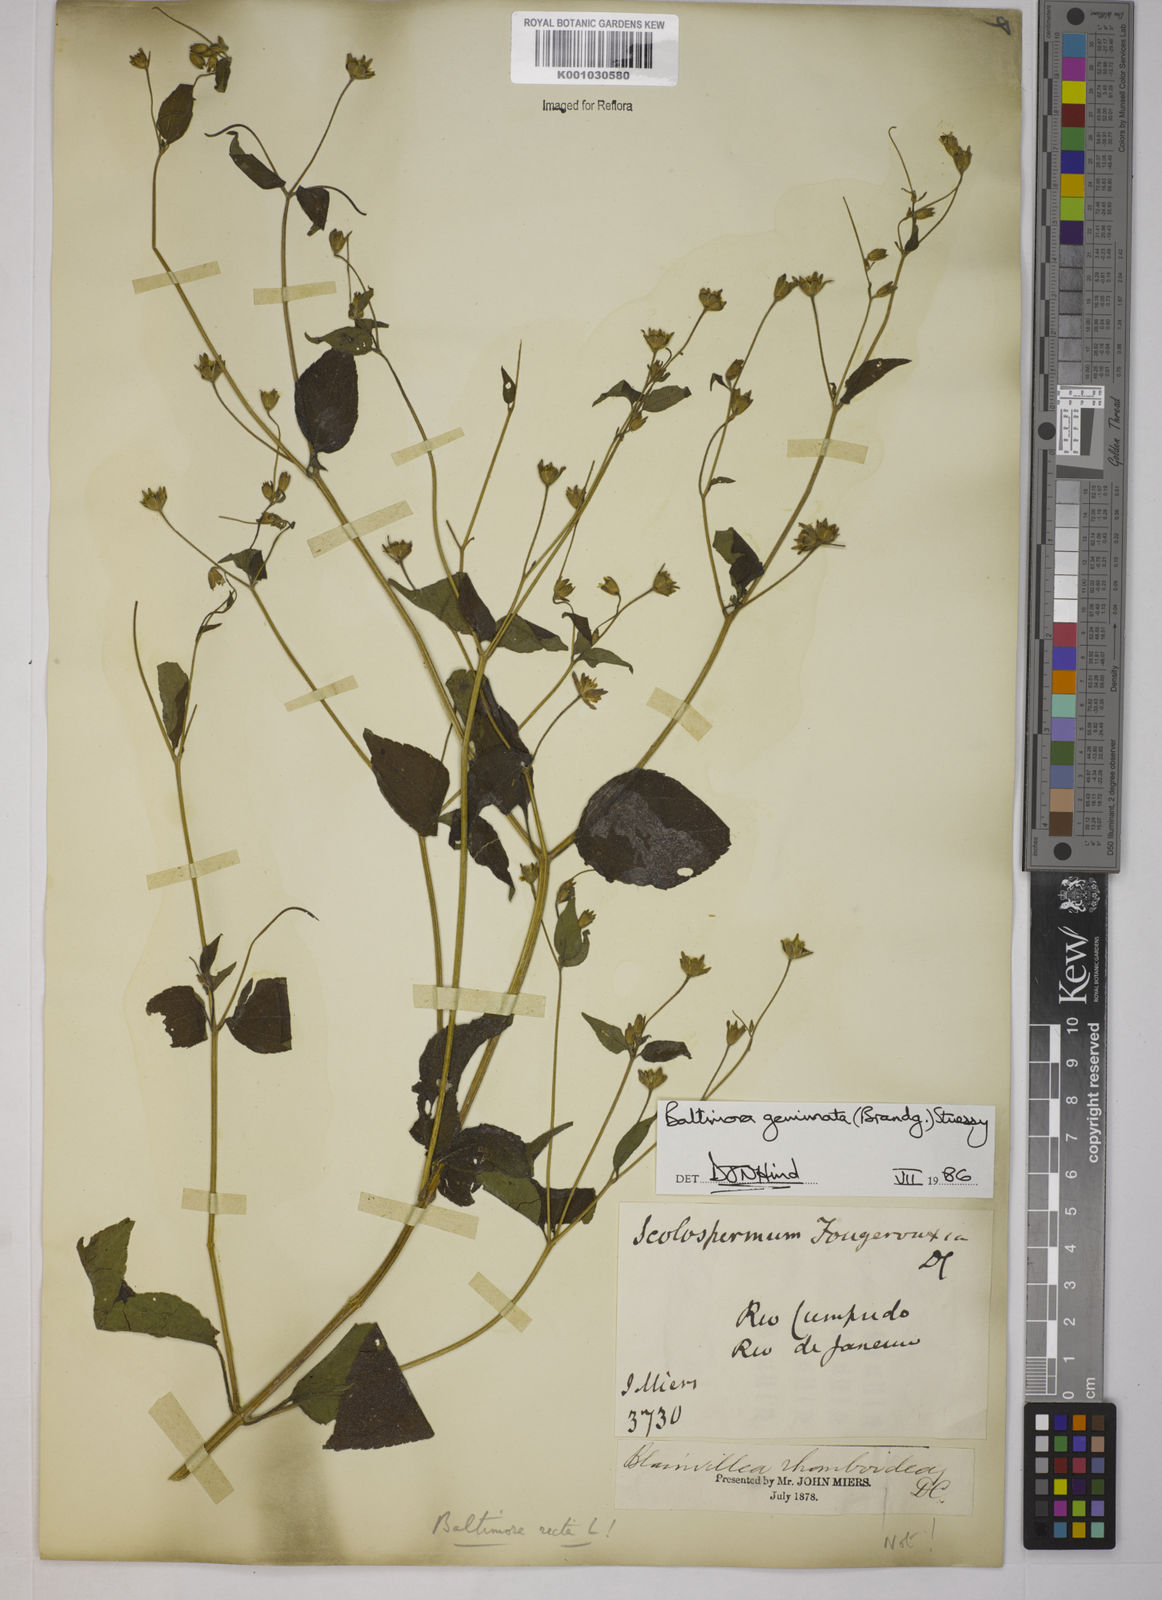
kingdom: Plantae
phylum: Tracheophyta
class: Magnoliopsida
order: Asterales
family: Asteraceae
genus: Baltimora
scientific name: Baltimora geminata
